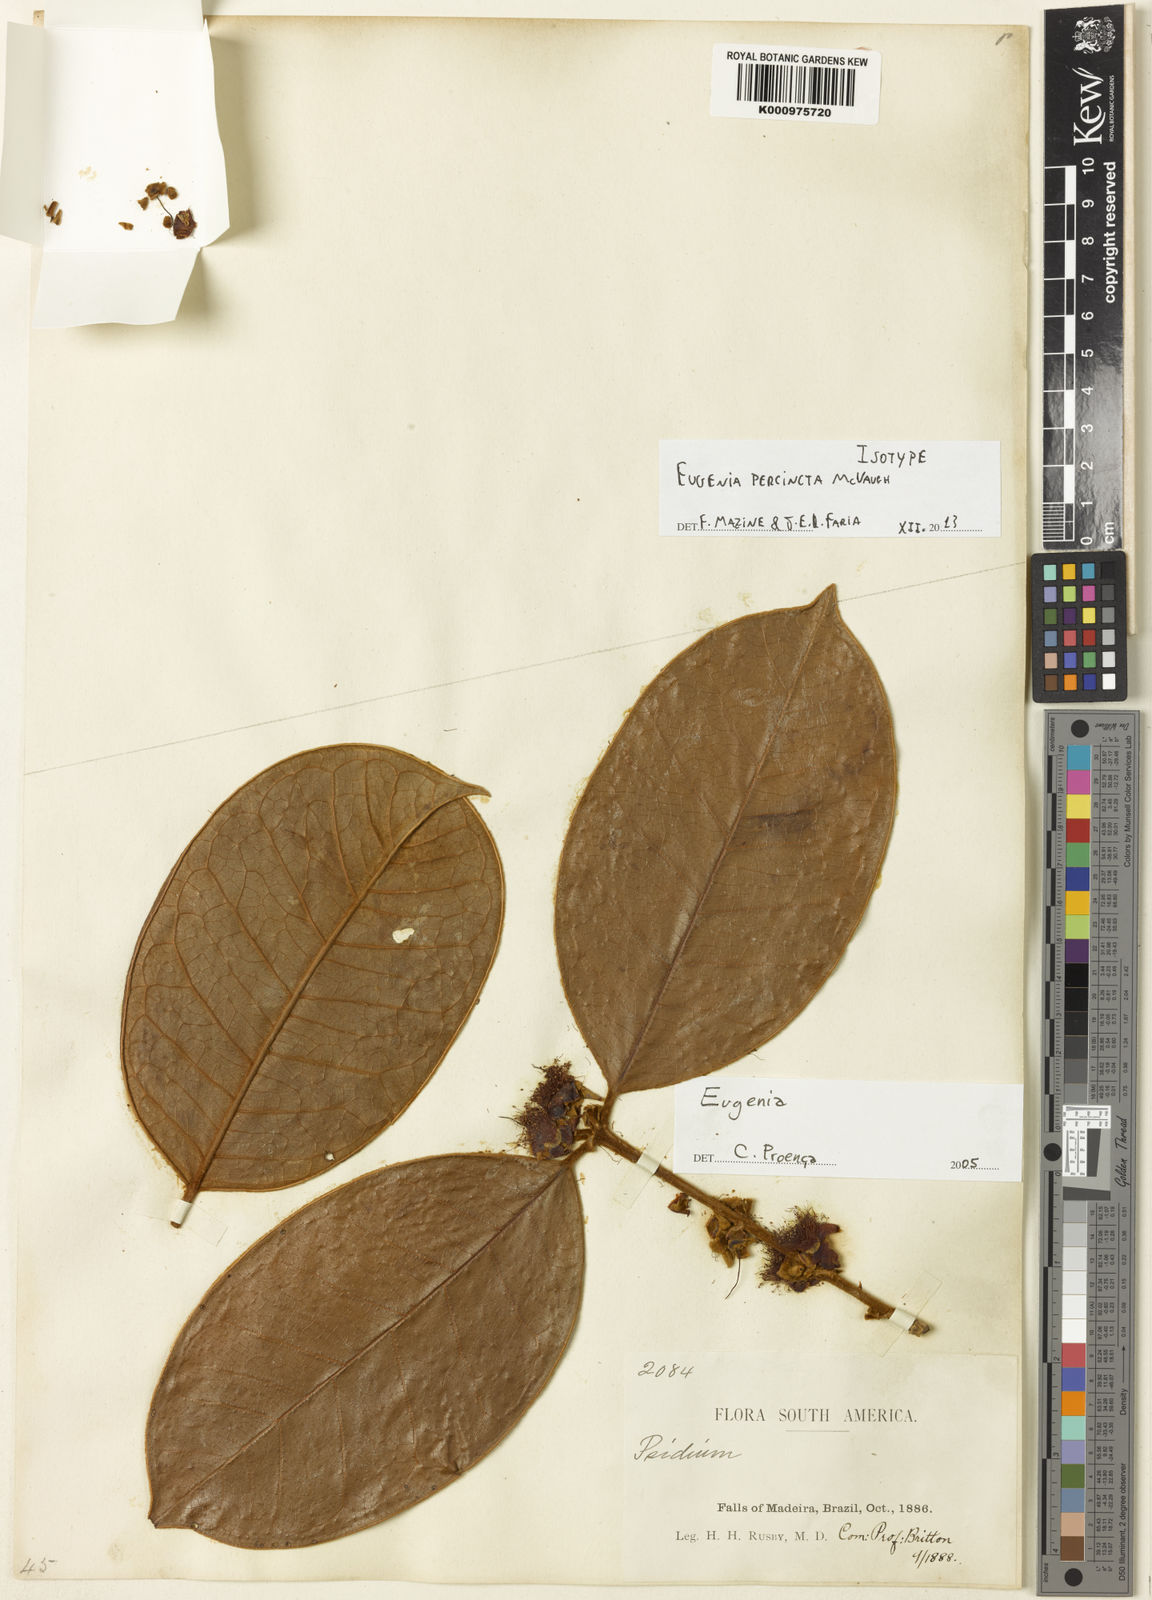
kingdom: Plantae
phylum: Tracheophyta
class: Magnoliopsida
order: Myrtales
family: Myrtaceae
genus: Eugenia
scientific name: Eugenia percincta
